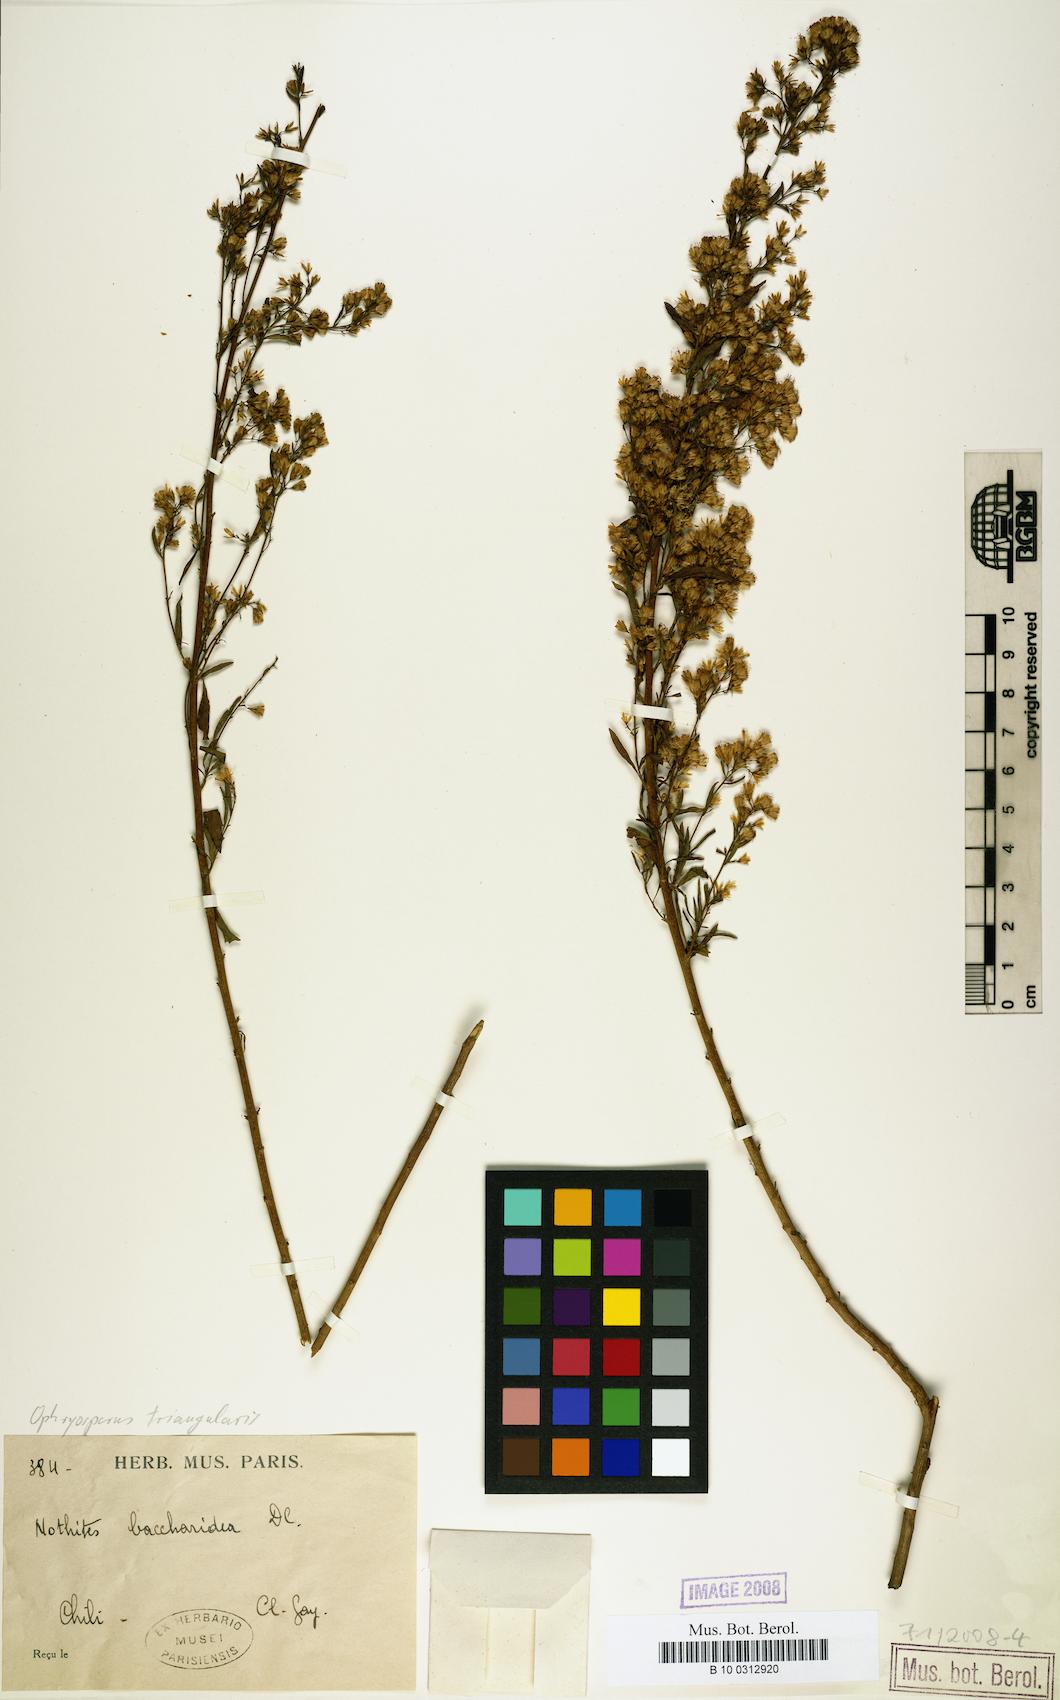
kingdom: Plantae
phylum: Tracheophyta
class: Magnoliopsida
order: Asterales
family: Asteraceae
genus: Ophryosporus
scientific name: Ophryosporus paradoxus
